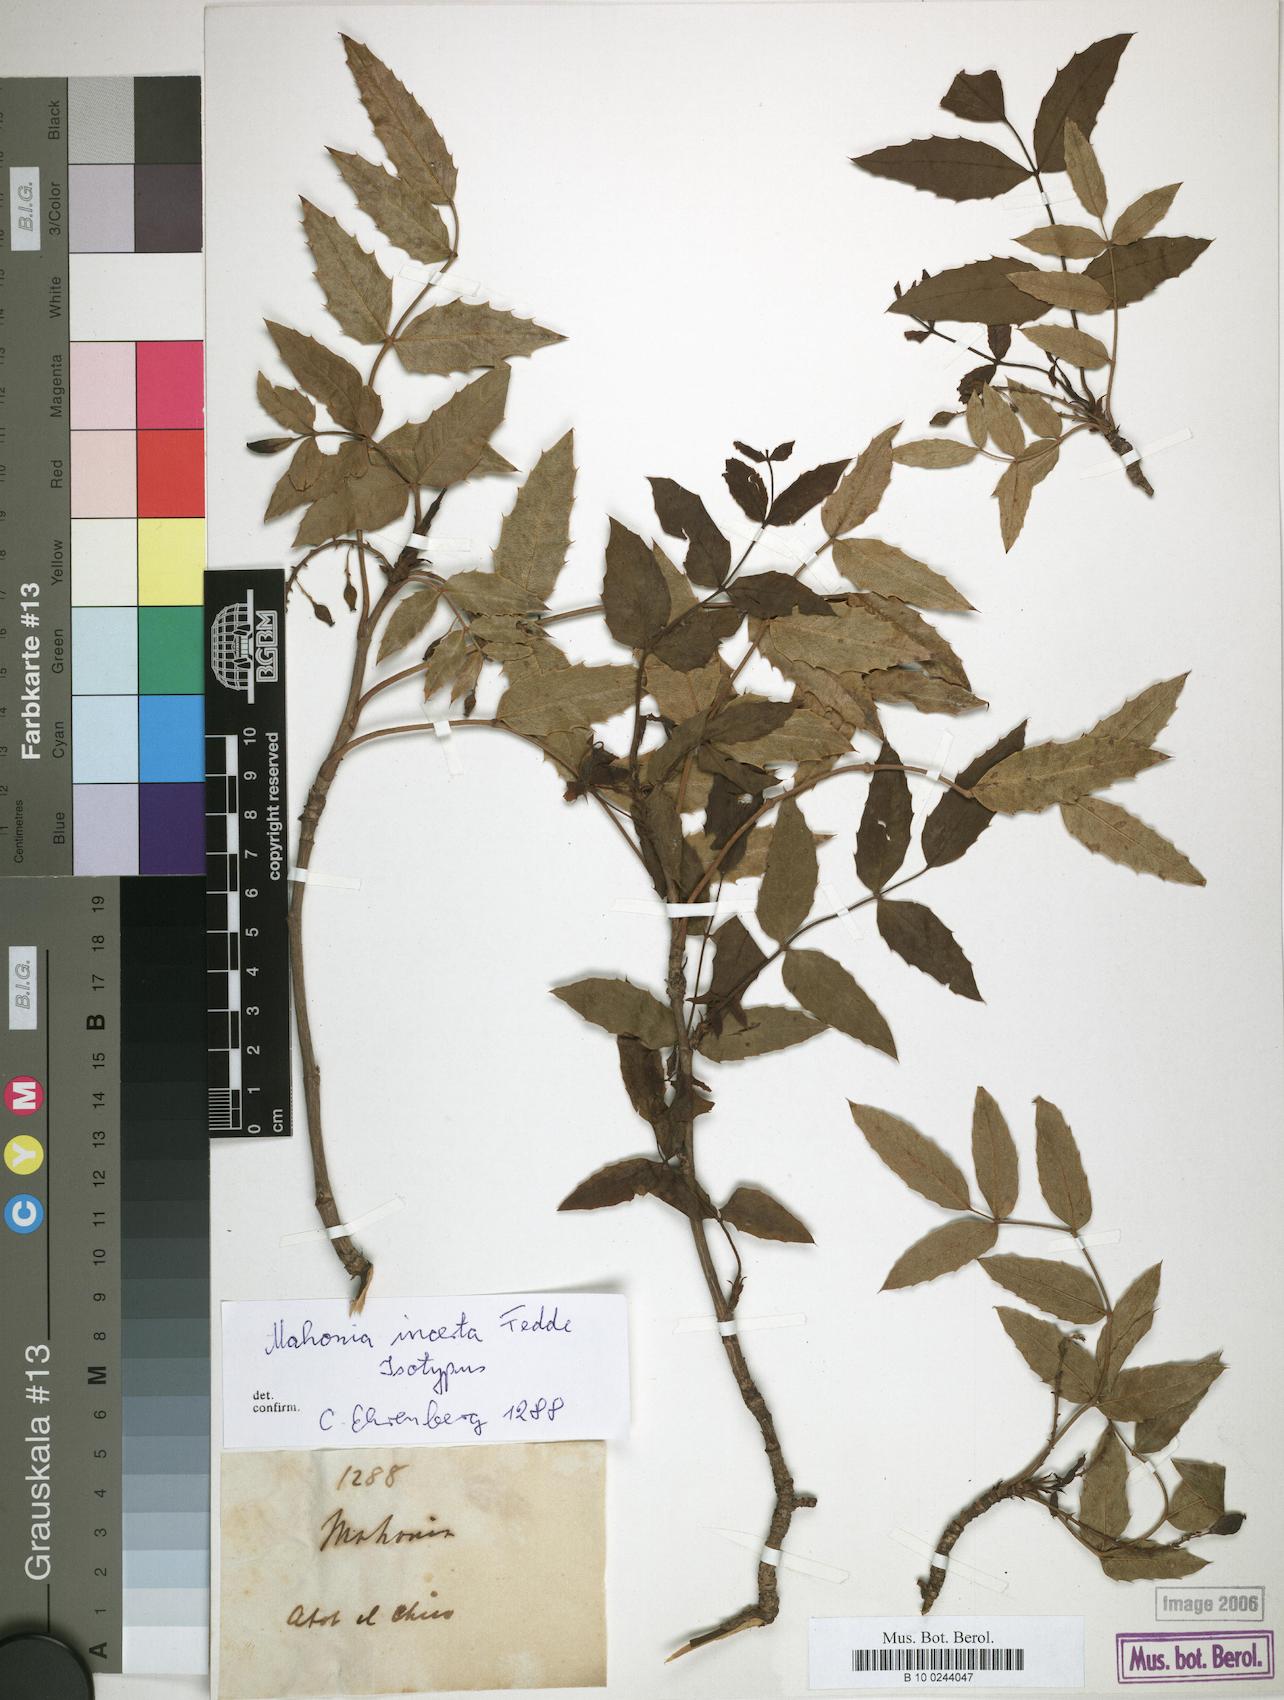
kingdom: Plantae
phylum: Tracheophyta
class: Magnoliopsida
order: Ranunculales
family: Berberidaceae
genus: Mahonia
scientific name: Mahonia incerta
